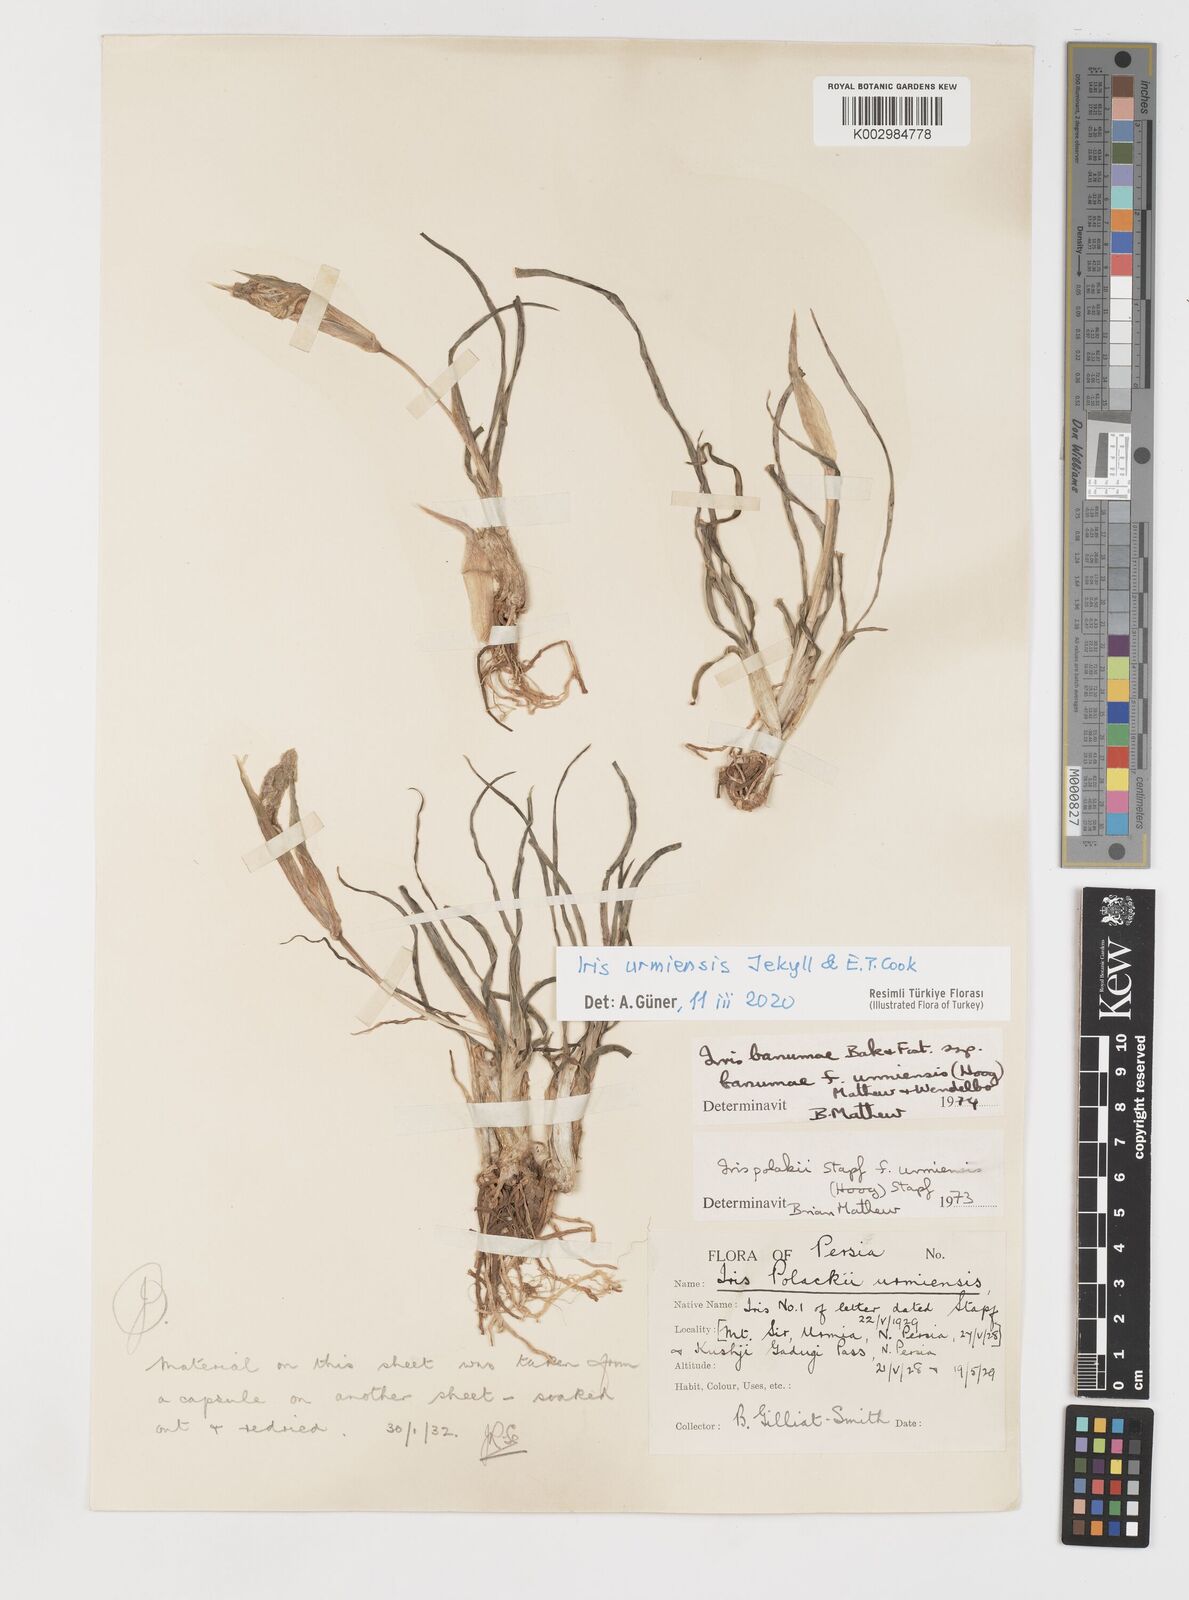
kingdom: Plantae
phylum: Tracheophyta
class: Liliopsida
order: Asparagales
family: Iridaceae
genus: Iris
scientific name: Iris urmiensis
